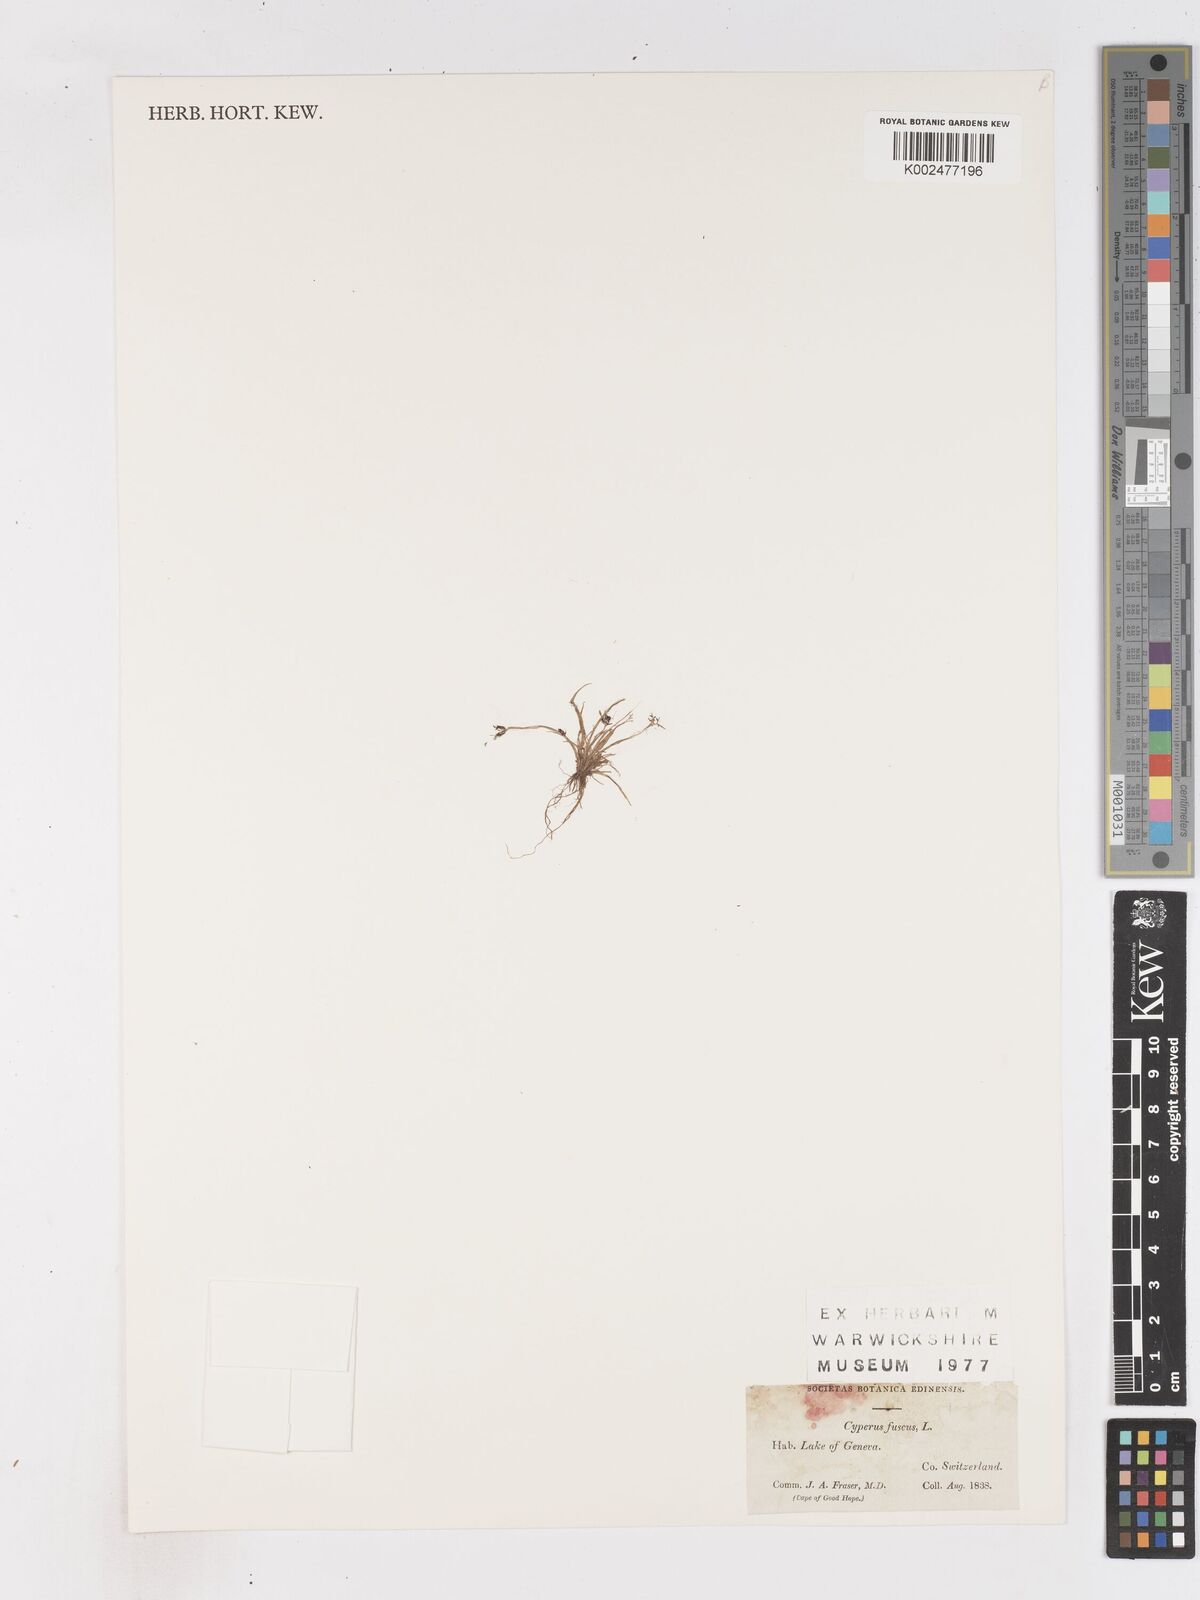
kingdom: Plantae
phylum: Tracheophyta
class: Liliopsida
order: Poales
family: Cyperaceae
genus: Cyperus
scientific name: Cyperus fuscus
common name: Brown galingale
